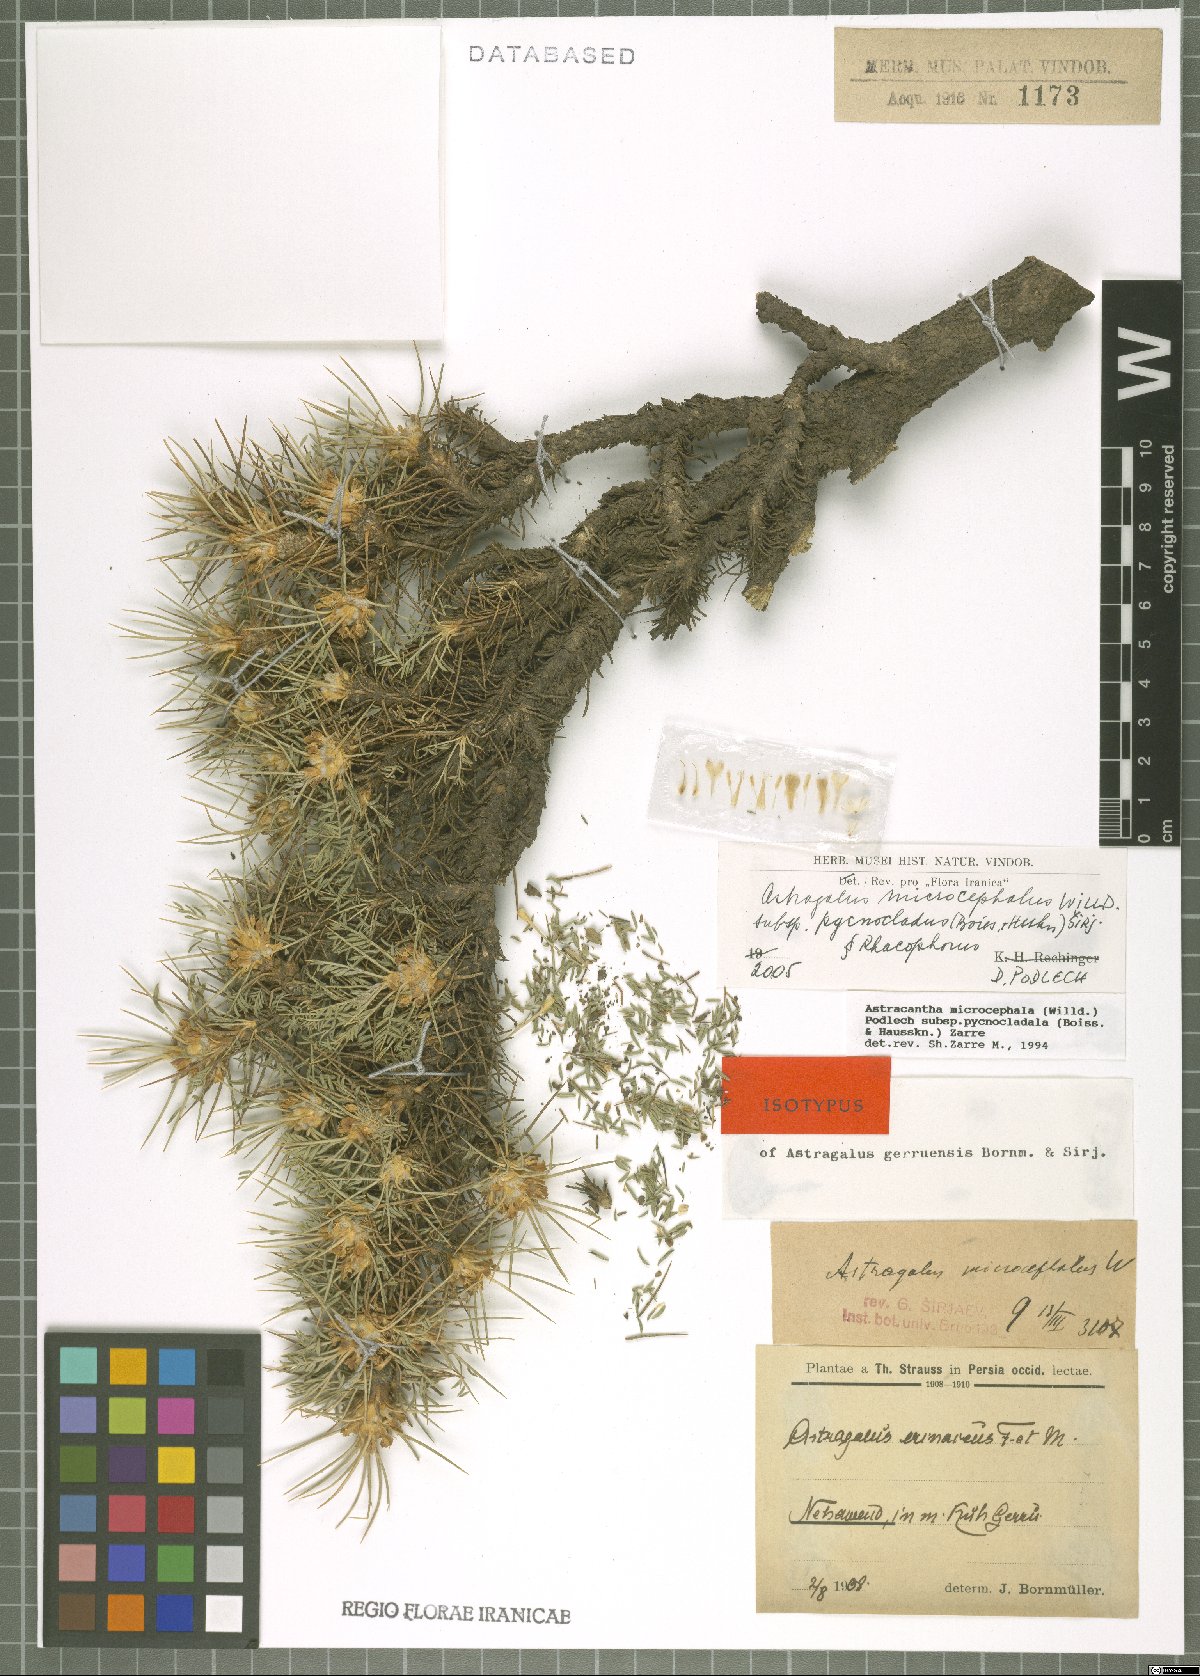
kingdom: Plantae
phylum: Tracheophyta
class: Magnoliopsida
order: Fabales
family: Fabaceae
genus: Astragalus
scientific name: Astragalus microcephalus
